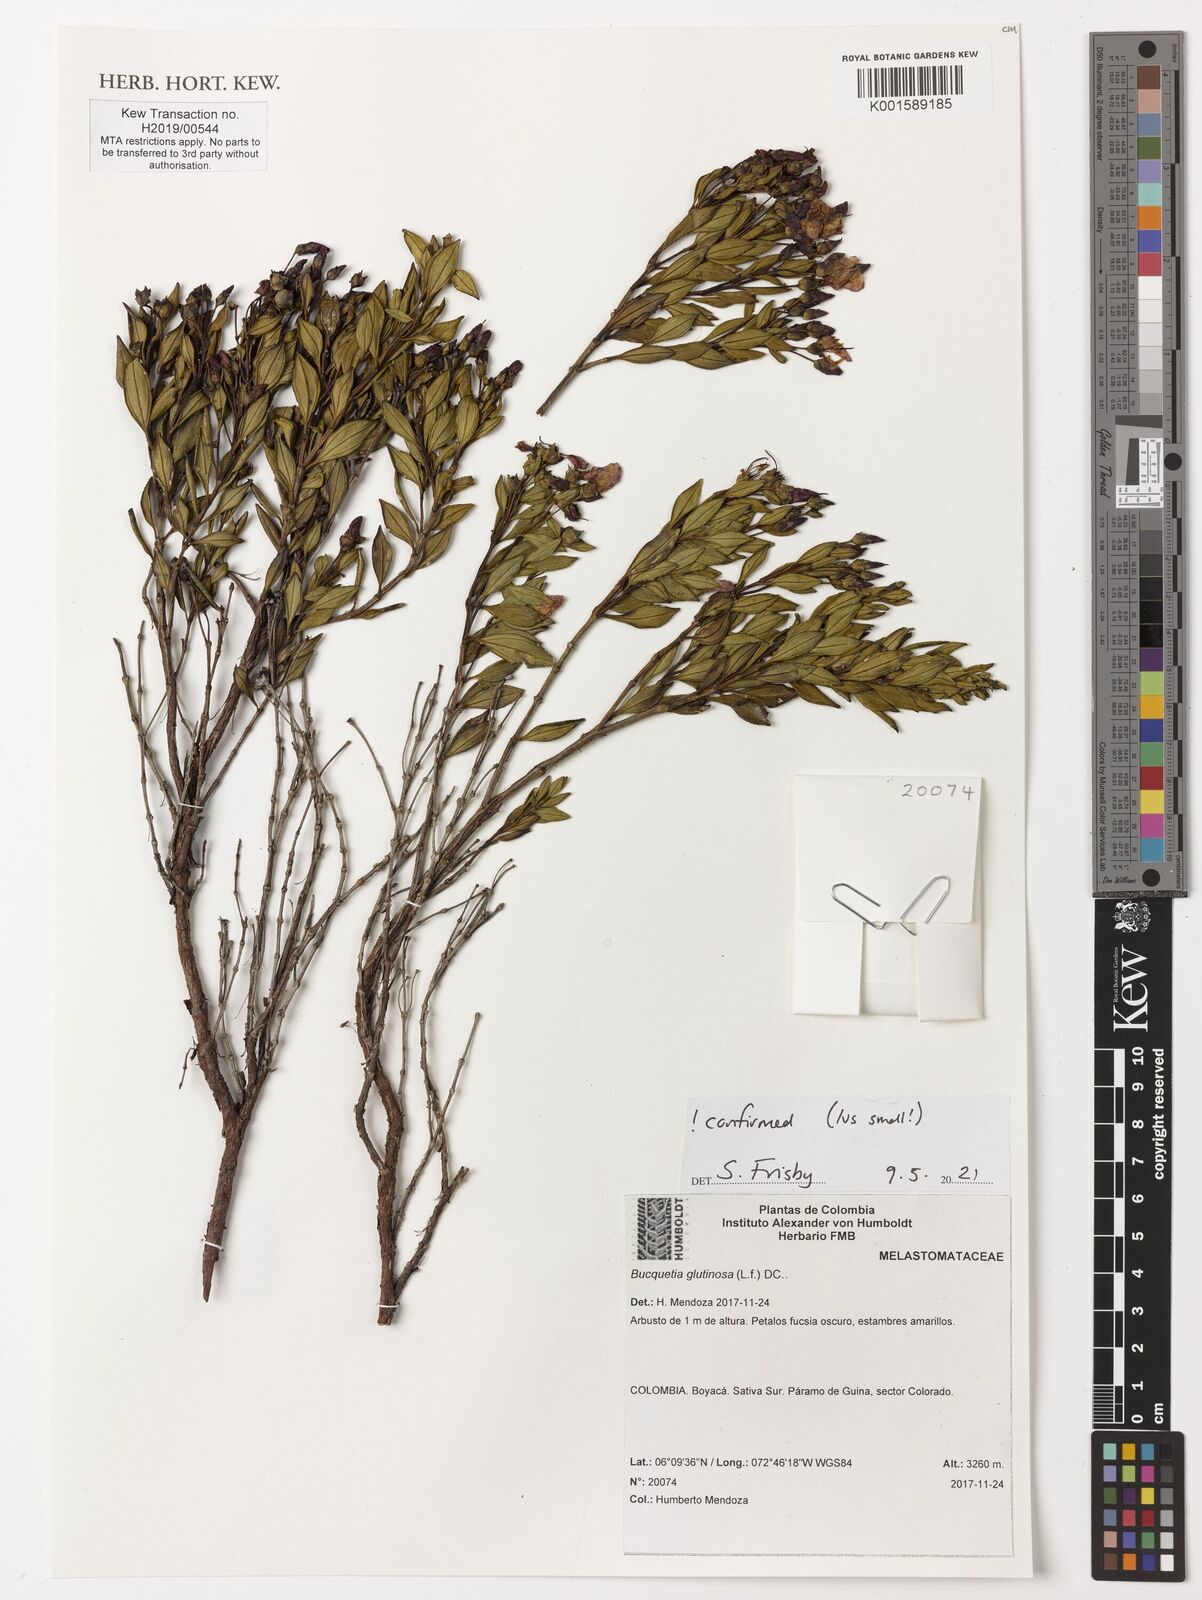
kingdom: Plantae
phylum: Tracheophyta
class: Magnoliopsida
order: Myrtales
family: Melastomataceae
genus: Bucquetia
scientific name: Bucquetia glutinosa
